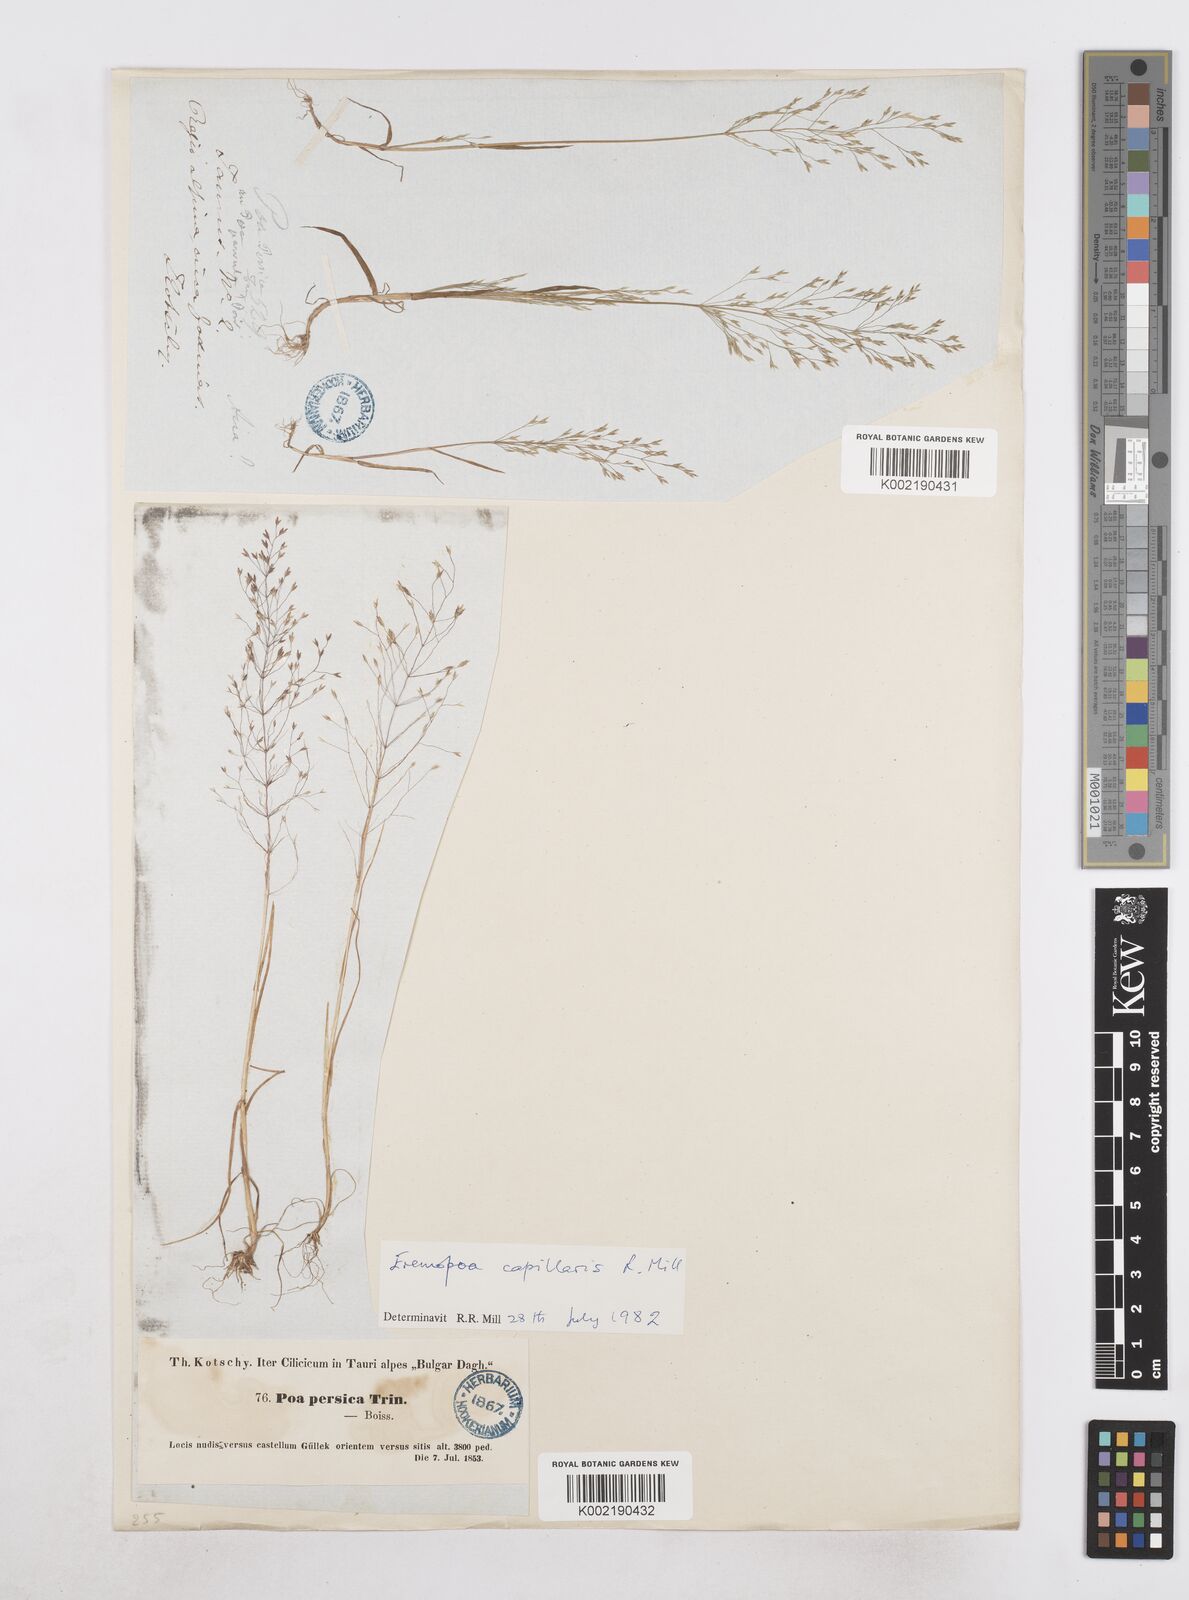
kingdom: Plantae
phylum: Tracheophyta
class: Liliopsida
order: Poales
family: Poaceae
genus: Poa
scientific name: Poa diaphora
